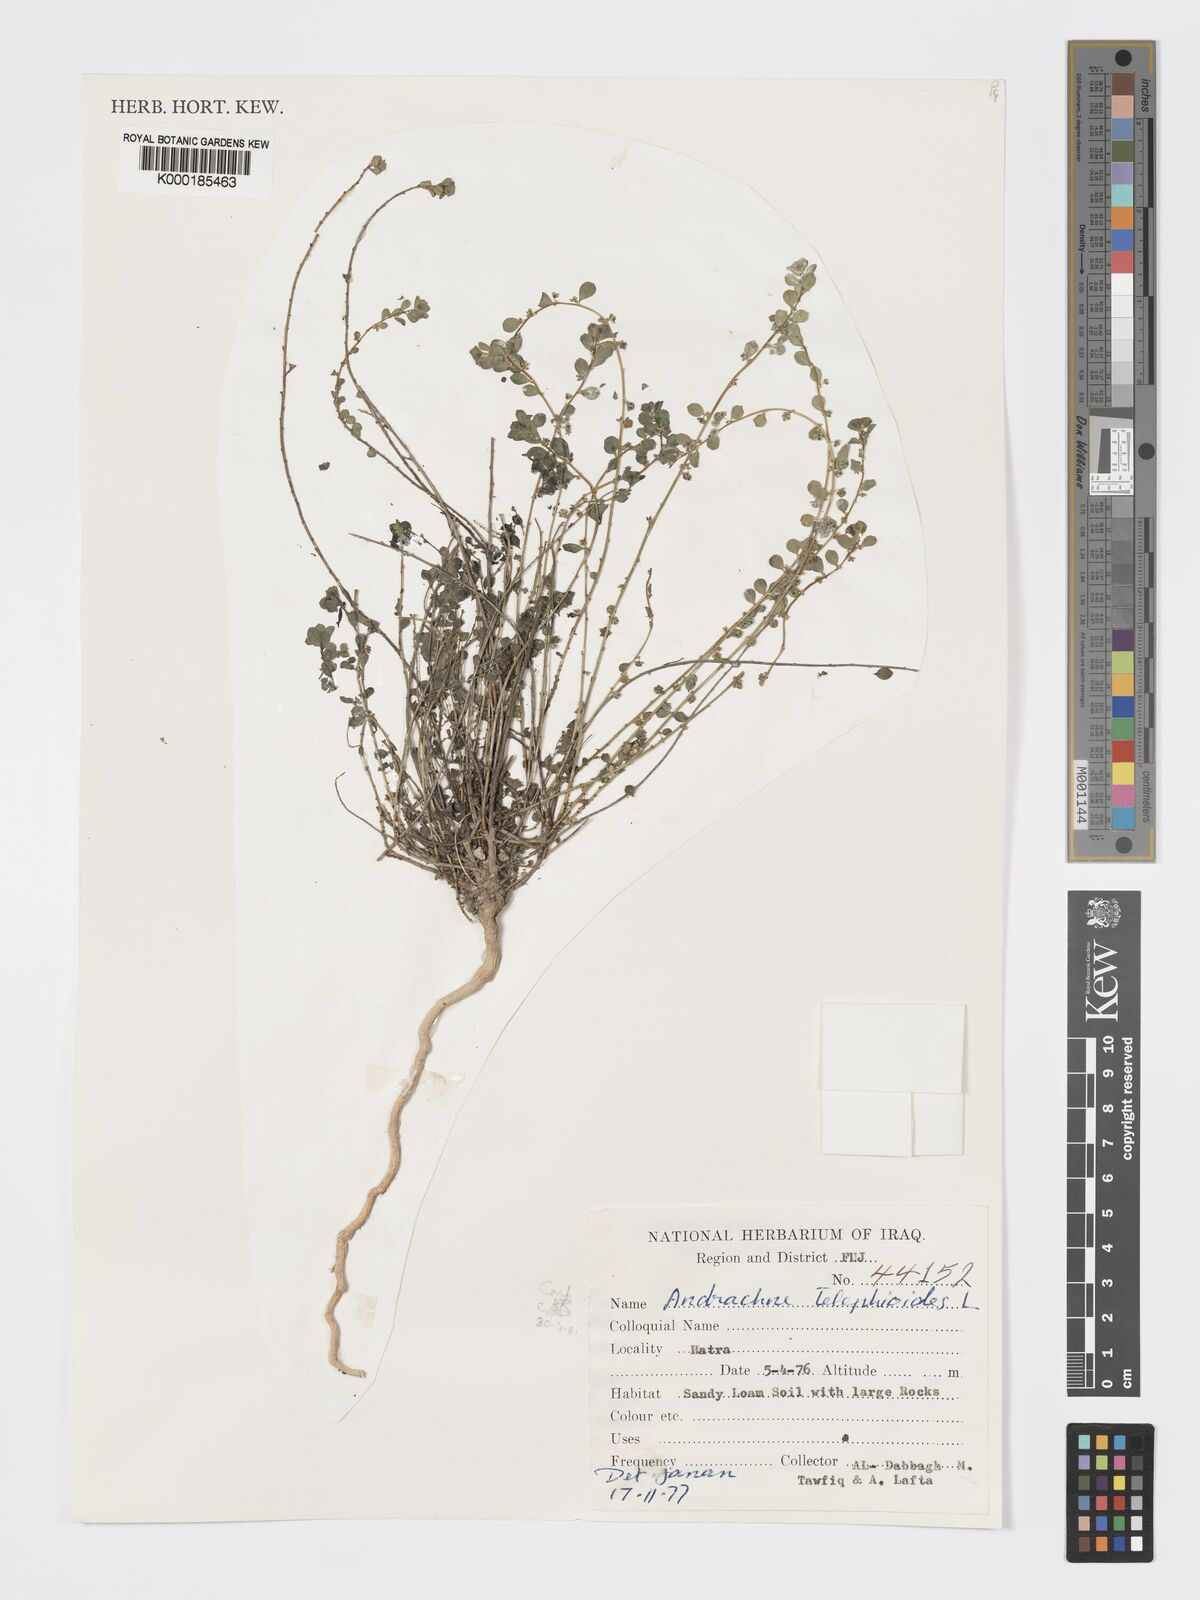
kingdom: Plantae
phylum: Tracheophyta
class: Magnoliopsida
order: Malpighiales
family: Phyllanthaceae
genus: Andrachne
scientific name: Andrachne telephioides
